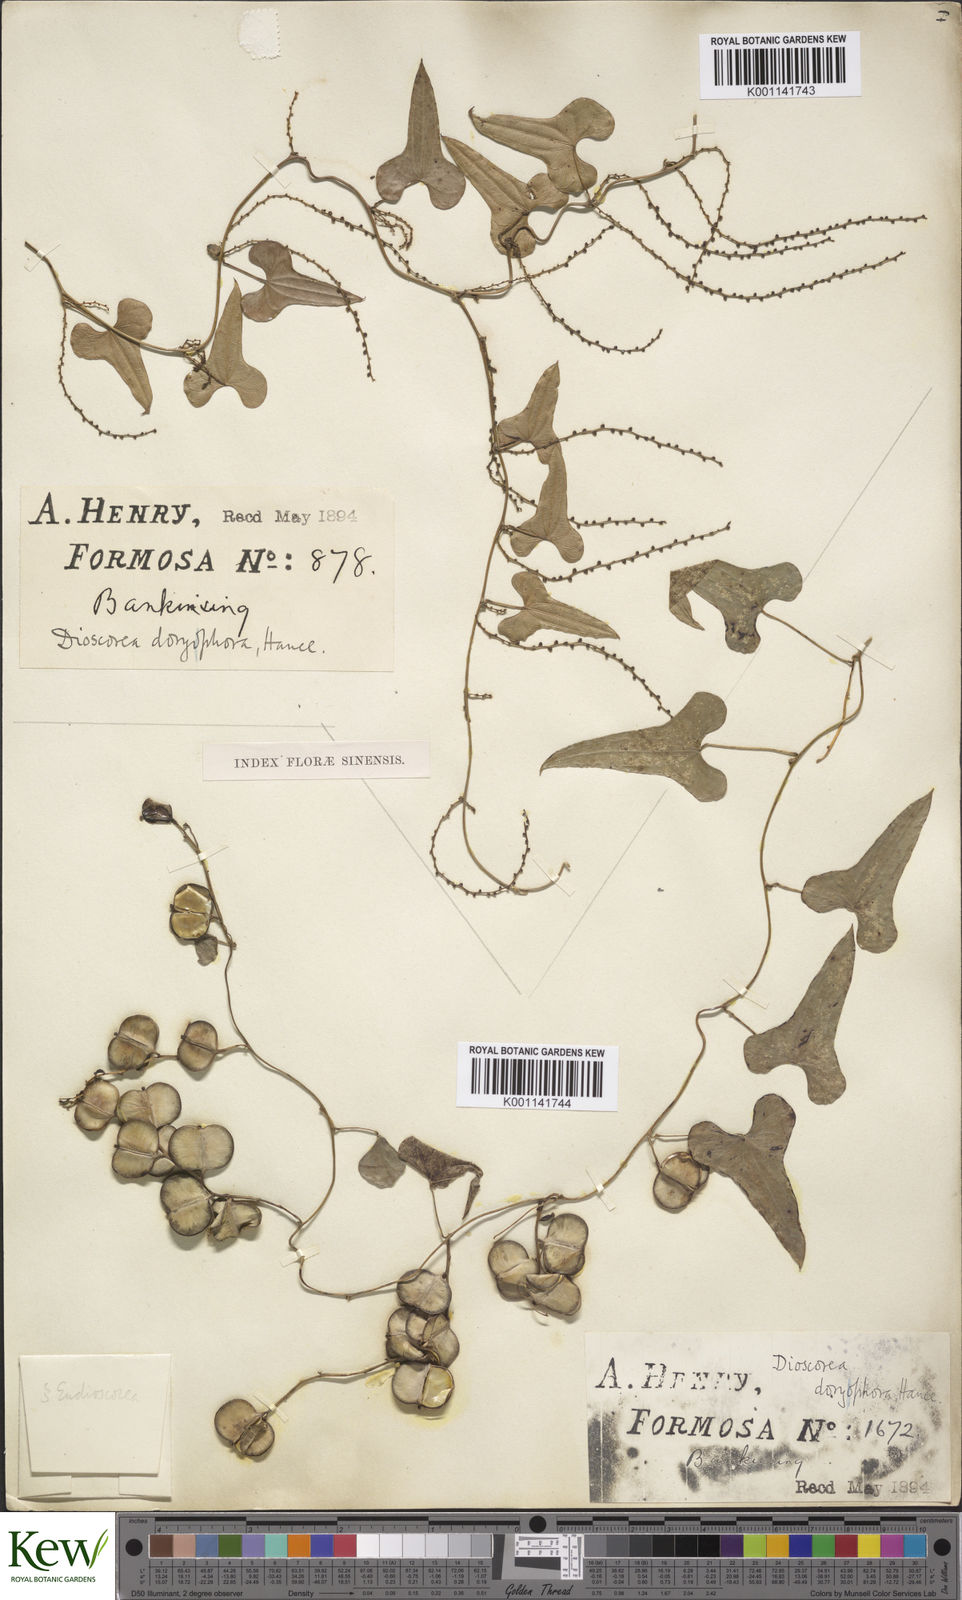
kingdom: Plantae
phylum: Tracheophyta
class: Liliopsida
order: Dioscoreales
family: Dioscoreaceae
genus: Dioscorea
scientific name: Dioscorea polystachya
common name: Chinese yam
